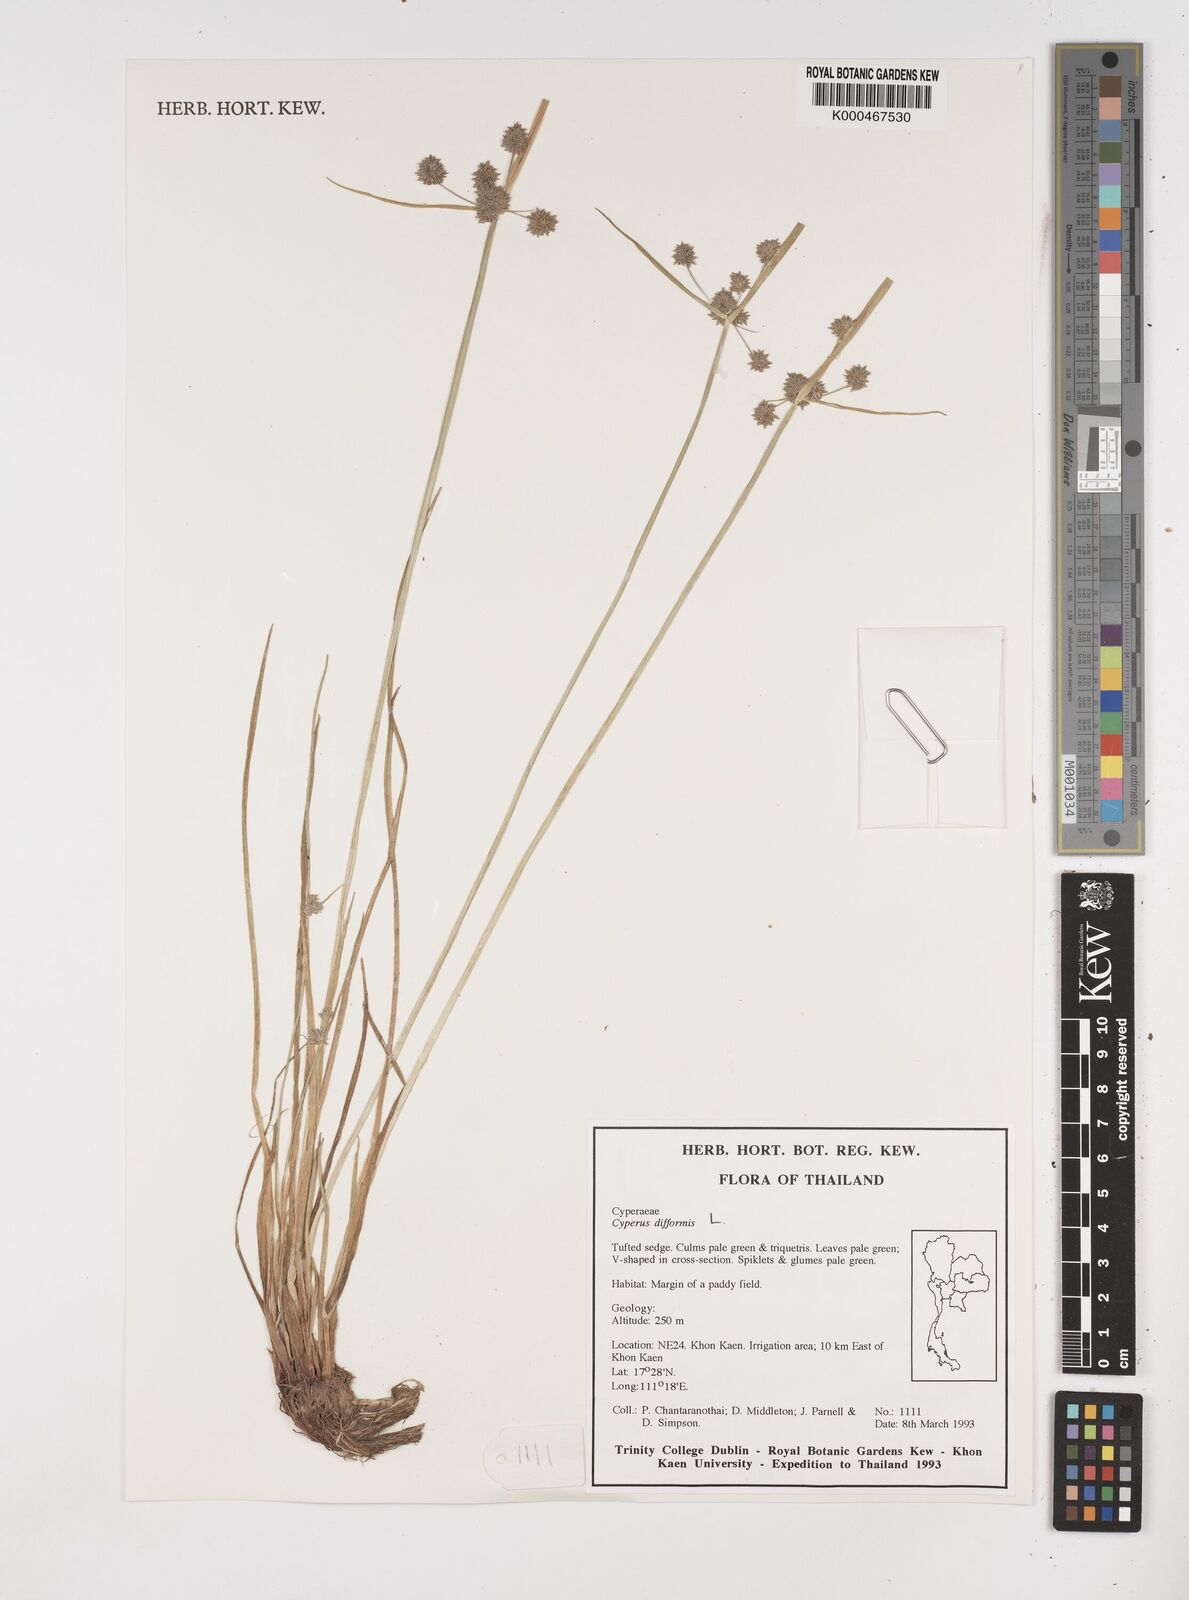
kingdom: Plantae
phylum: Tracheophyta
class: Liliopsida
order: Poales
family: Cyperaceae
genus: Cyperus
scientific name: Cyperus difformis
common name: Variable flatsedge
